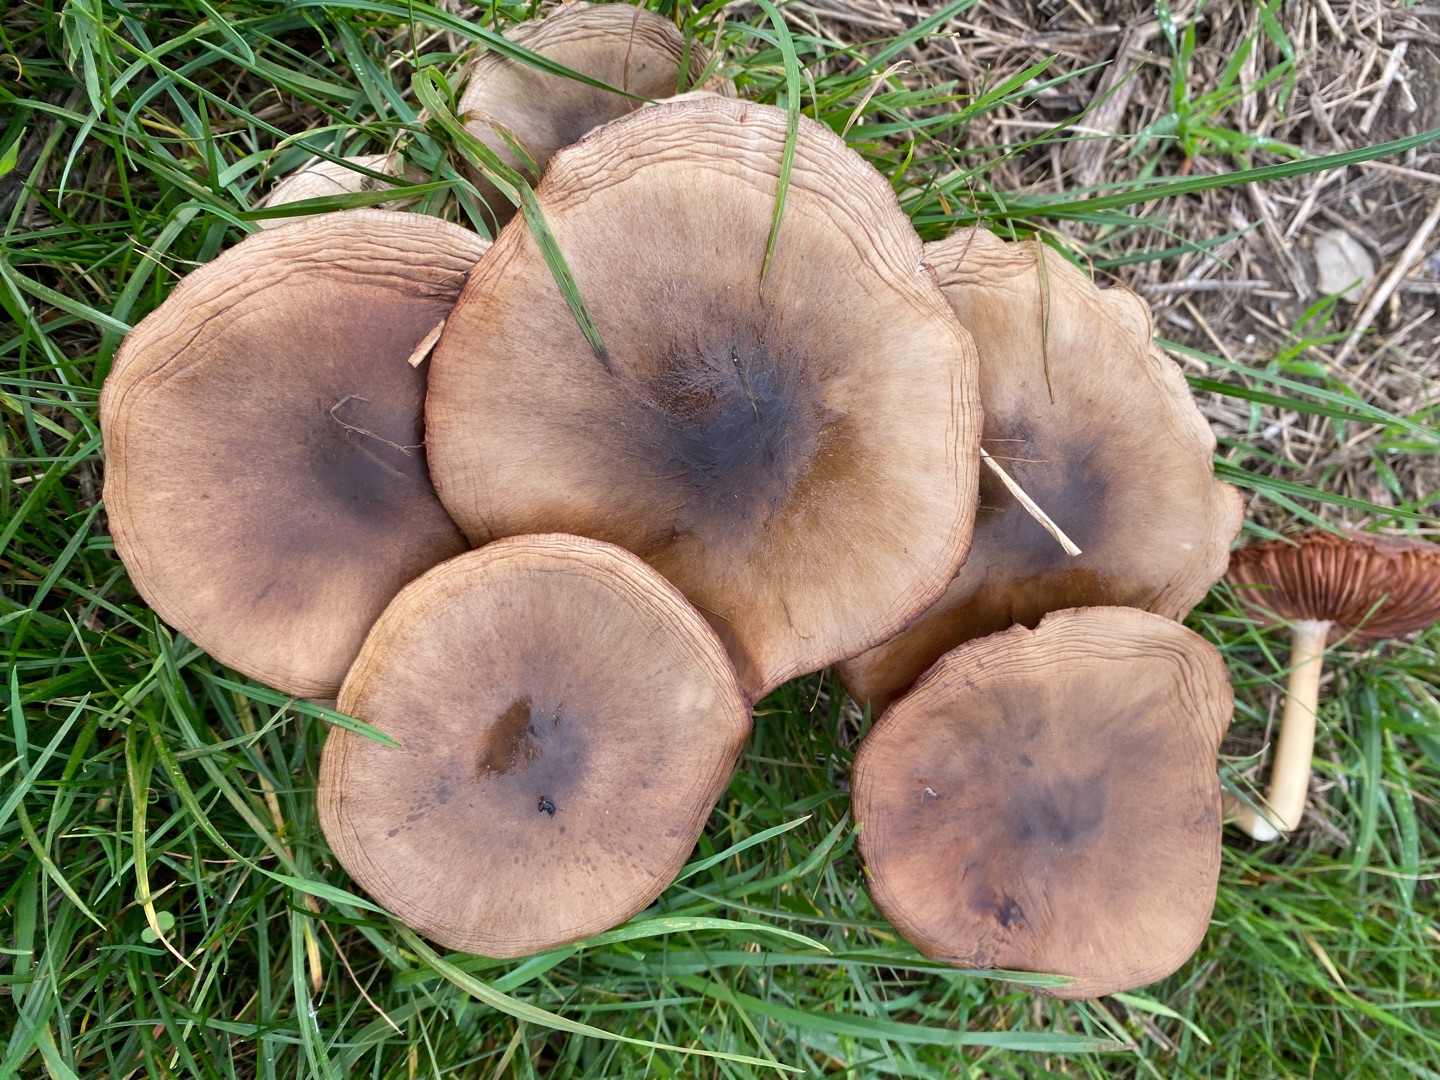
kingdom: Fungi
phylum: Basidiomycota
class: Agaricomycetes
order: Agaricales
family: Pluteaceae
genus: Volvopluteus
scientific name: Volvopluteus gloiocephalus
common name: Høj posesvamp
